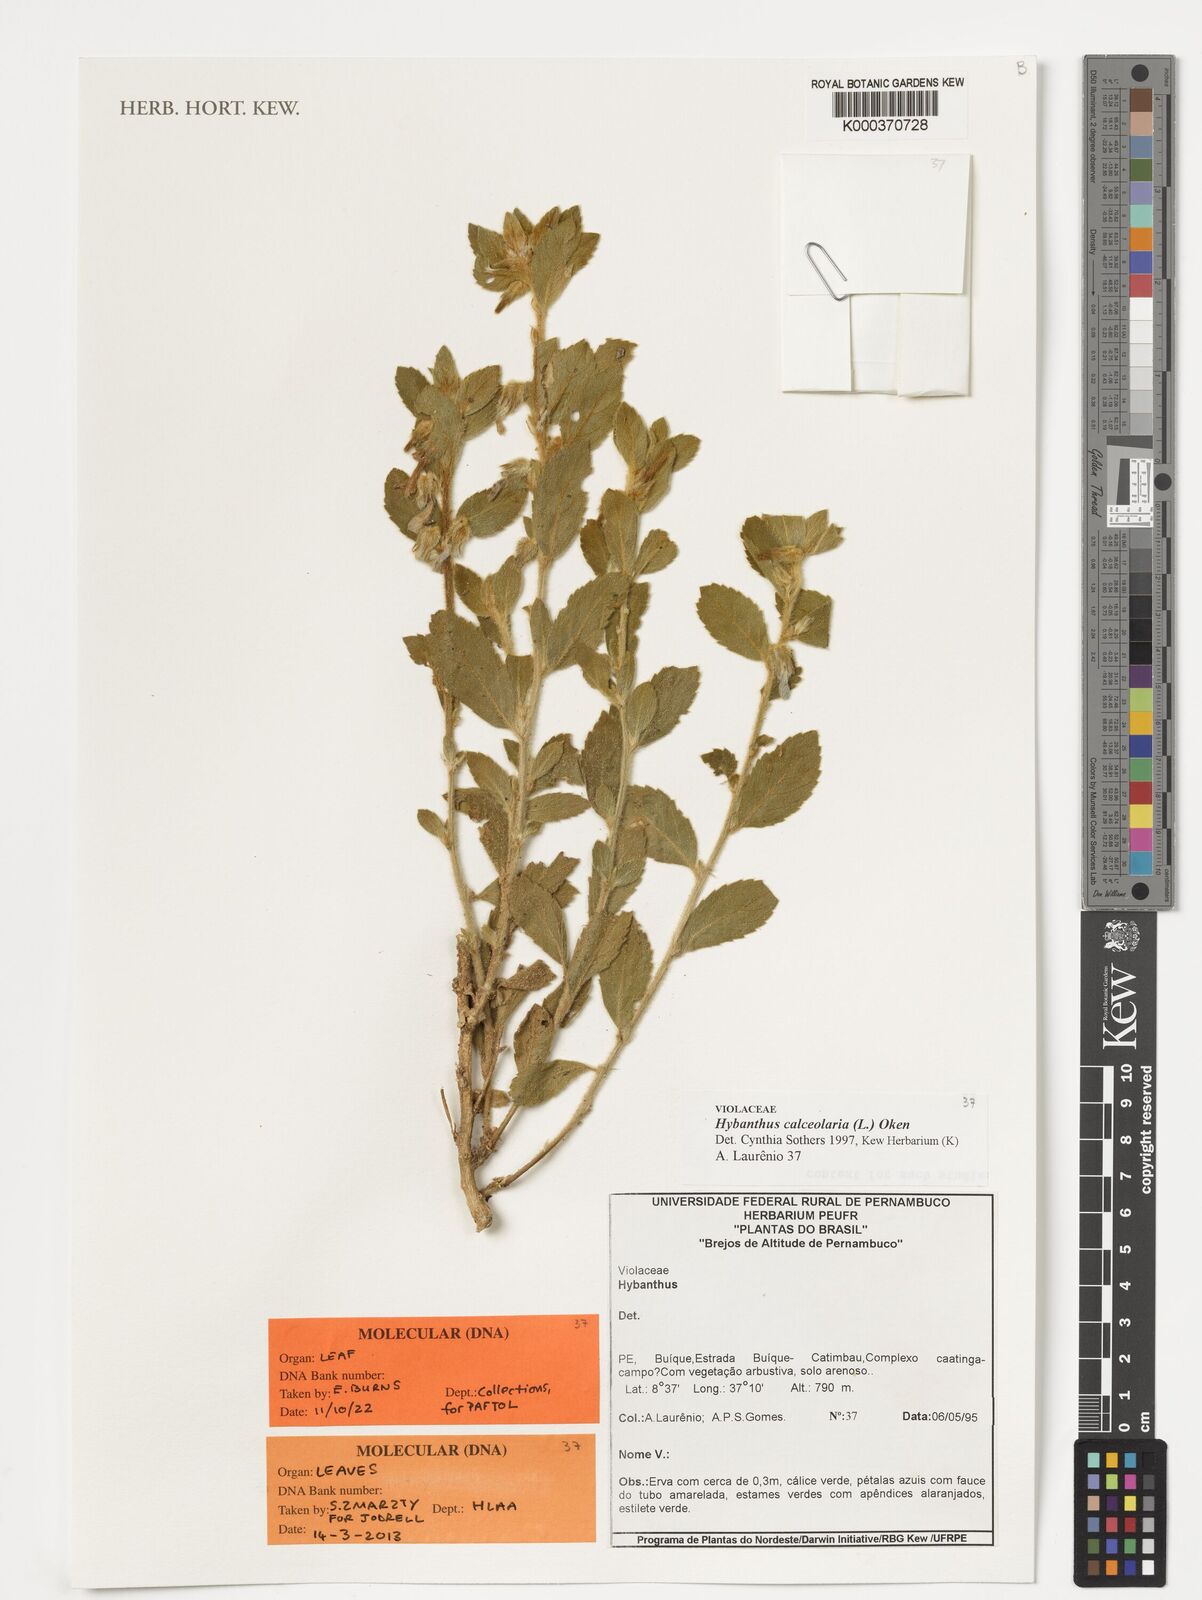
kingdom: Plantae
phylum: Tracheophyta
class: Magnoliopsida
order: Malpighiales
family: Violaceae
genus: Pombalia
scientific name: Pombalia calceolaria
